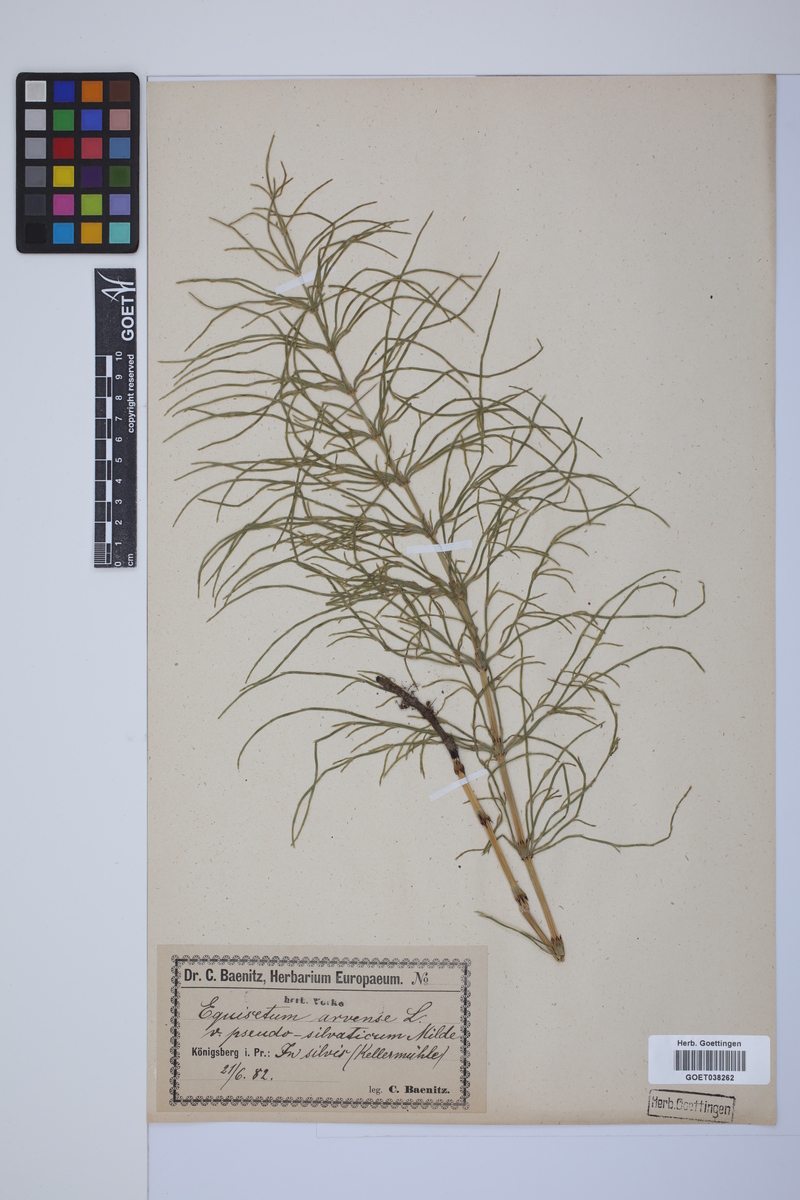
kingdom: Plantae
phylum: Tracheophyta
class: Polypodiopsida
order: Equisetales
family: Equisetaceae
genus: Equisetum
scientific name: Equisetum arvense
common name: Field horsetail
